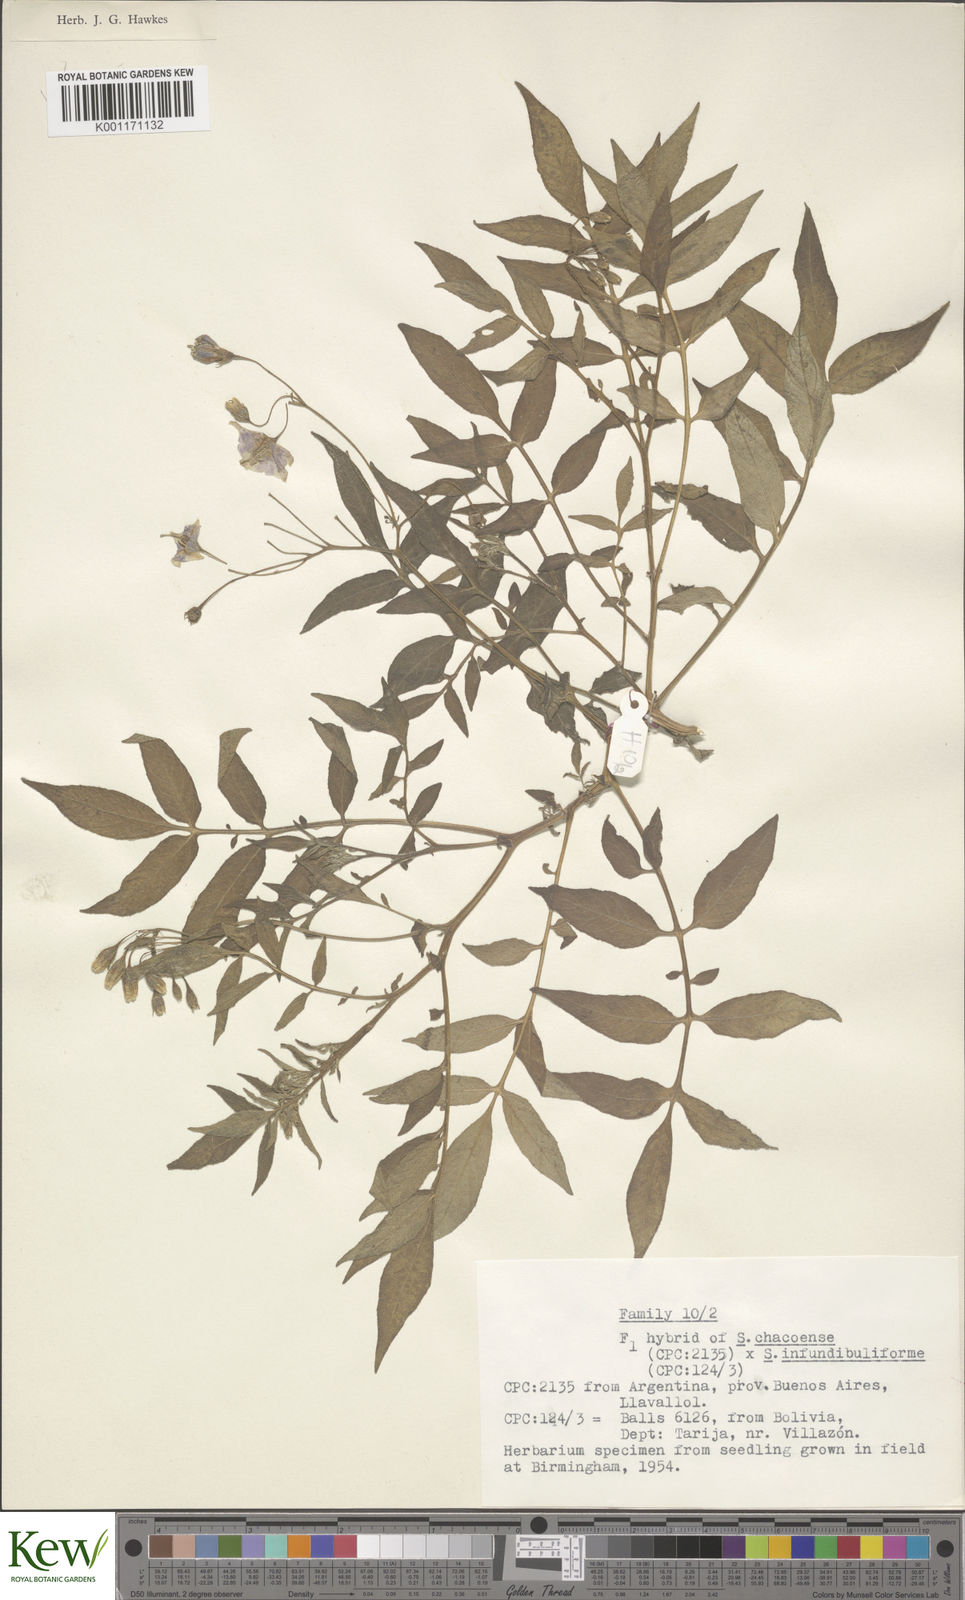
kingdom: Plantae
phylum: Tracheophyta
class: Magnoliopsida
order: Solanales
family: Solanaceae
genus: Solanum
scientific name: Solanum chacoense
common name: Chaco potato
